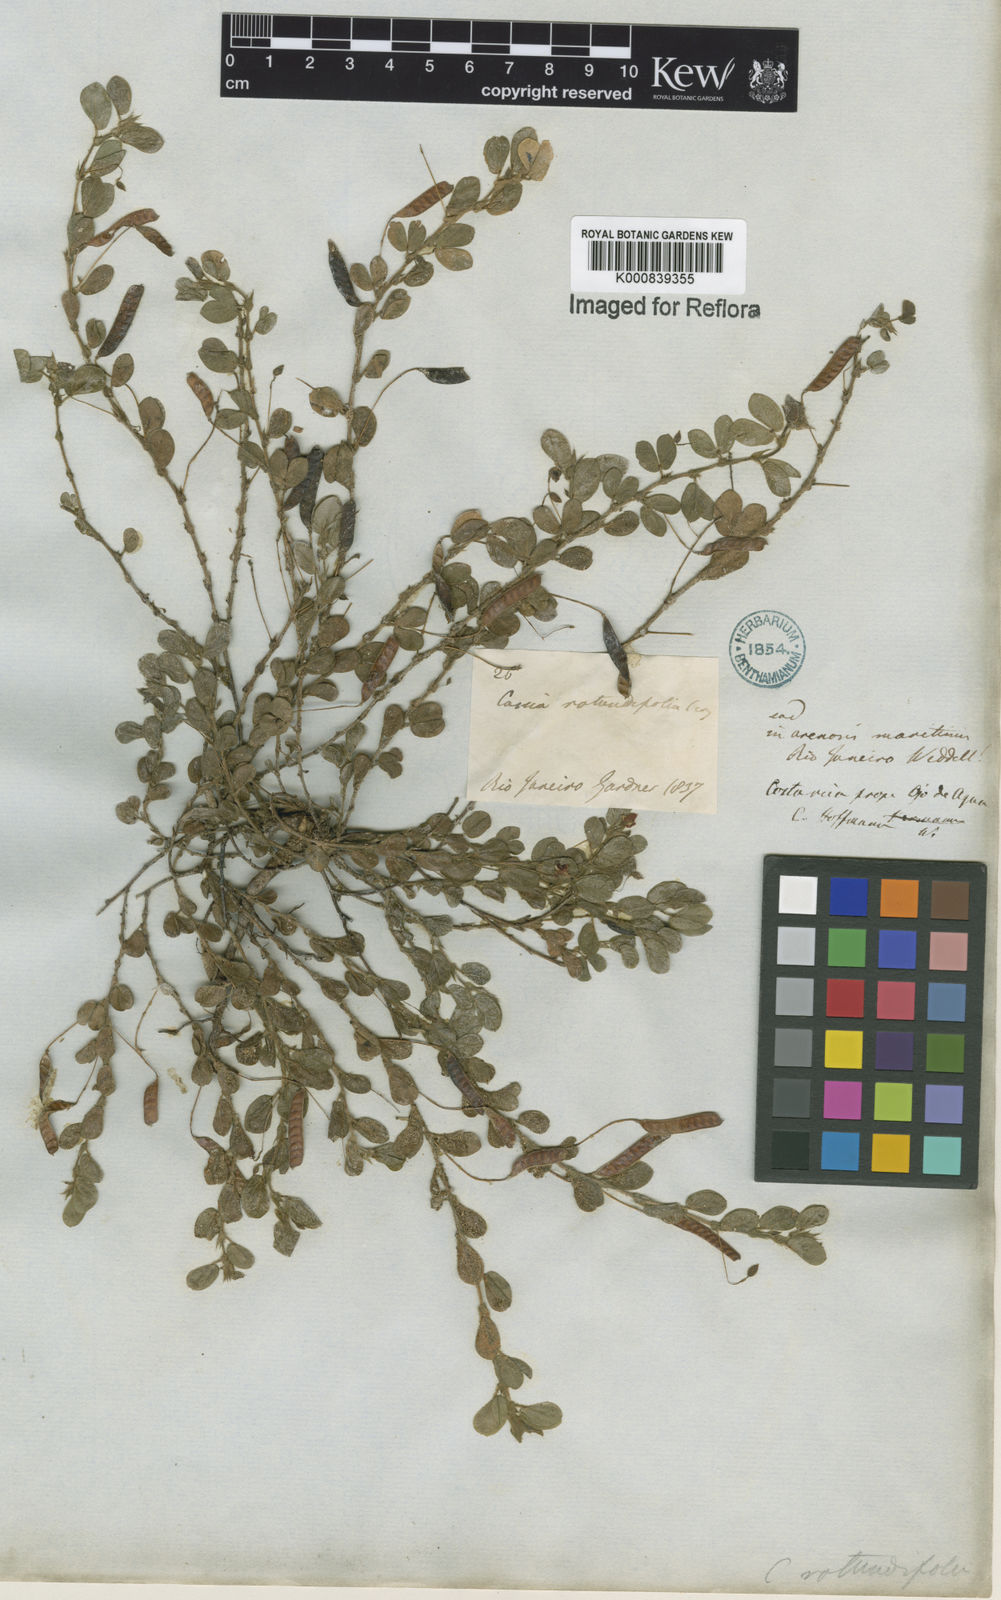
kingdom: Plantae
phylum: Tracheophyta
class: Magnoliopsida
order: Fabales
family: Fabaceae
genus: Chamaecrista
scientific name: Chamaecrista rotundifolia
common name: Round-leaf cassia
